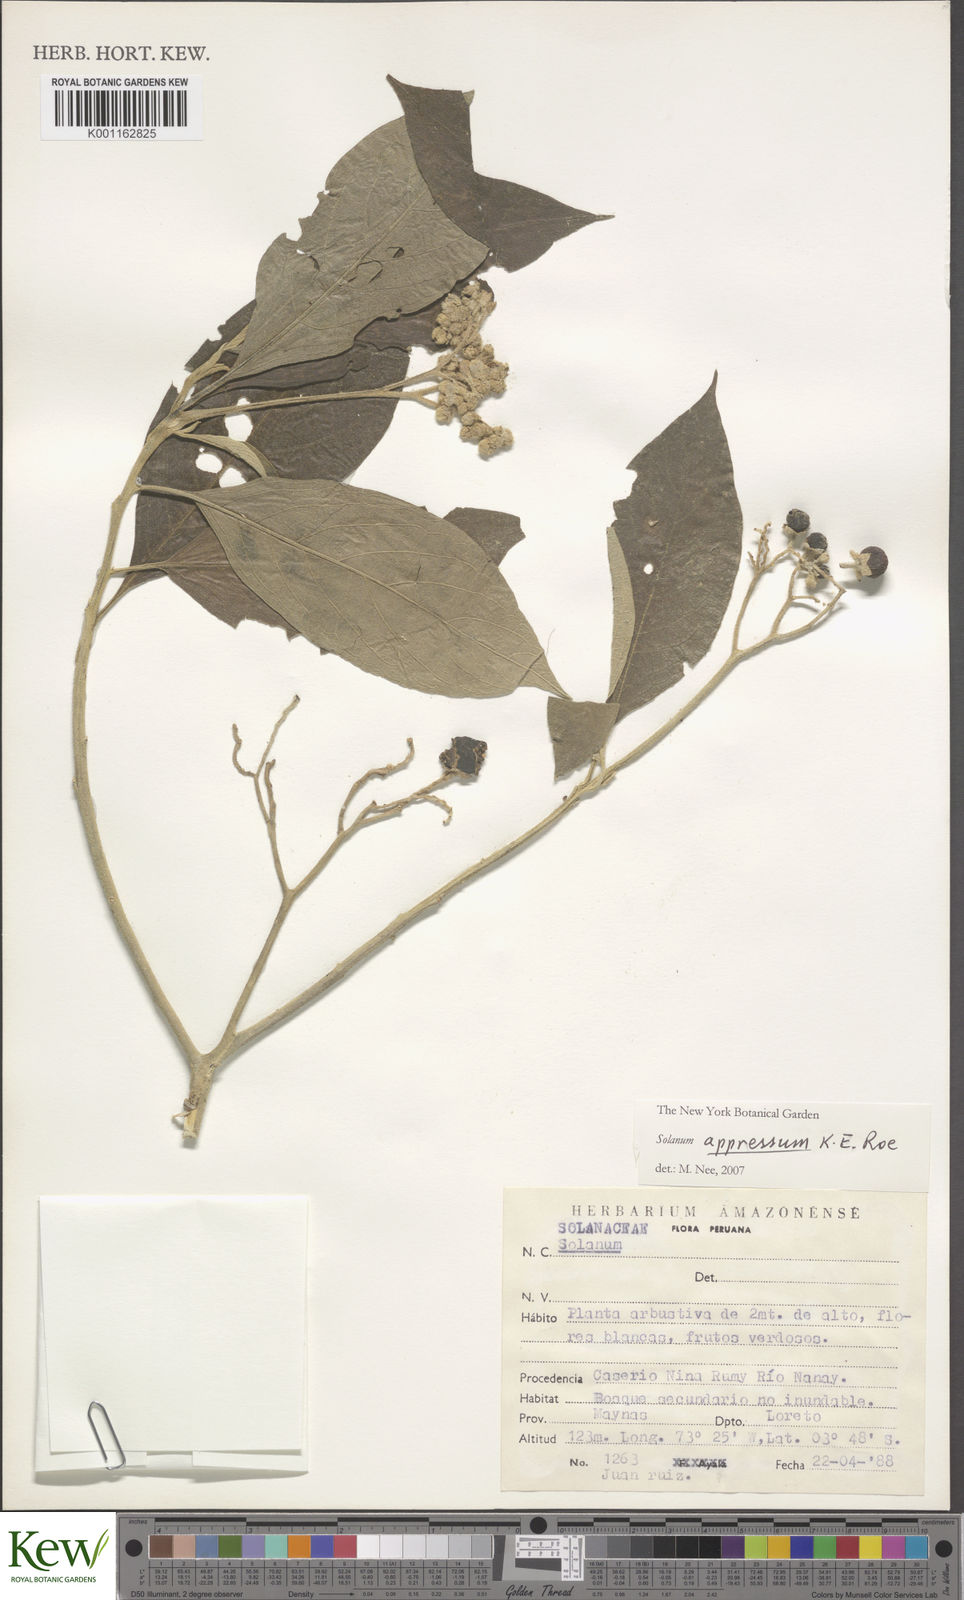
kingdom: Plantae
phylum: Tracheophyta
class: Magnoliopsida
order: Solanales
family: Solanaceae
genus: Solanum
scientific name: Solanum appressum
